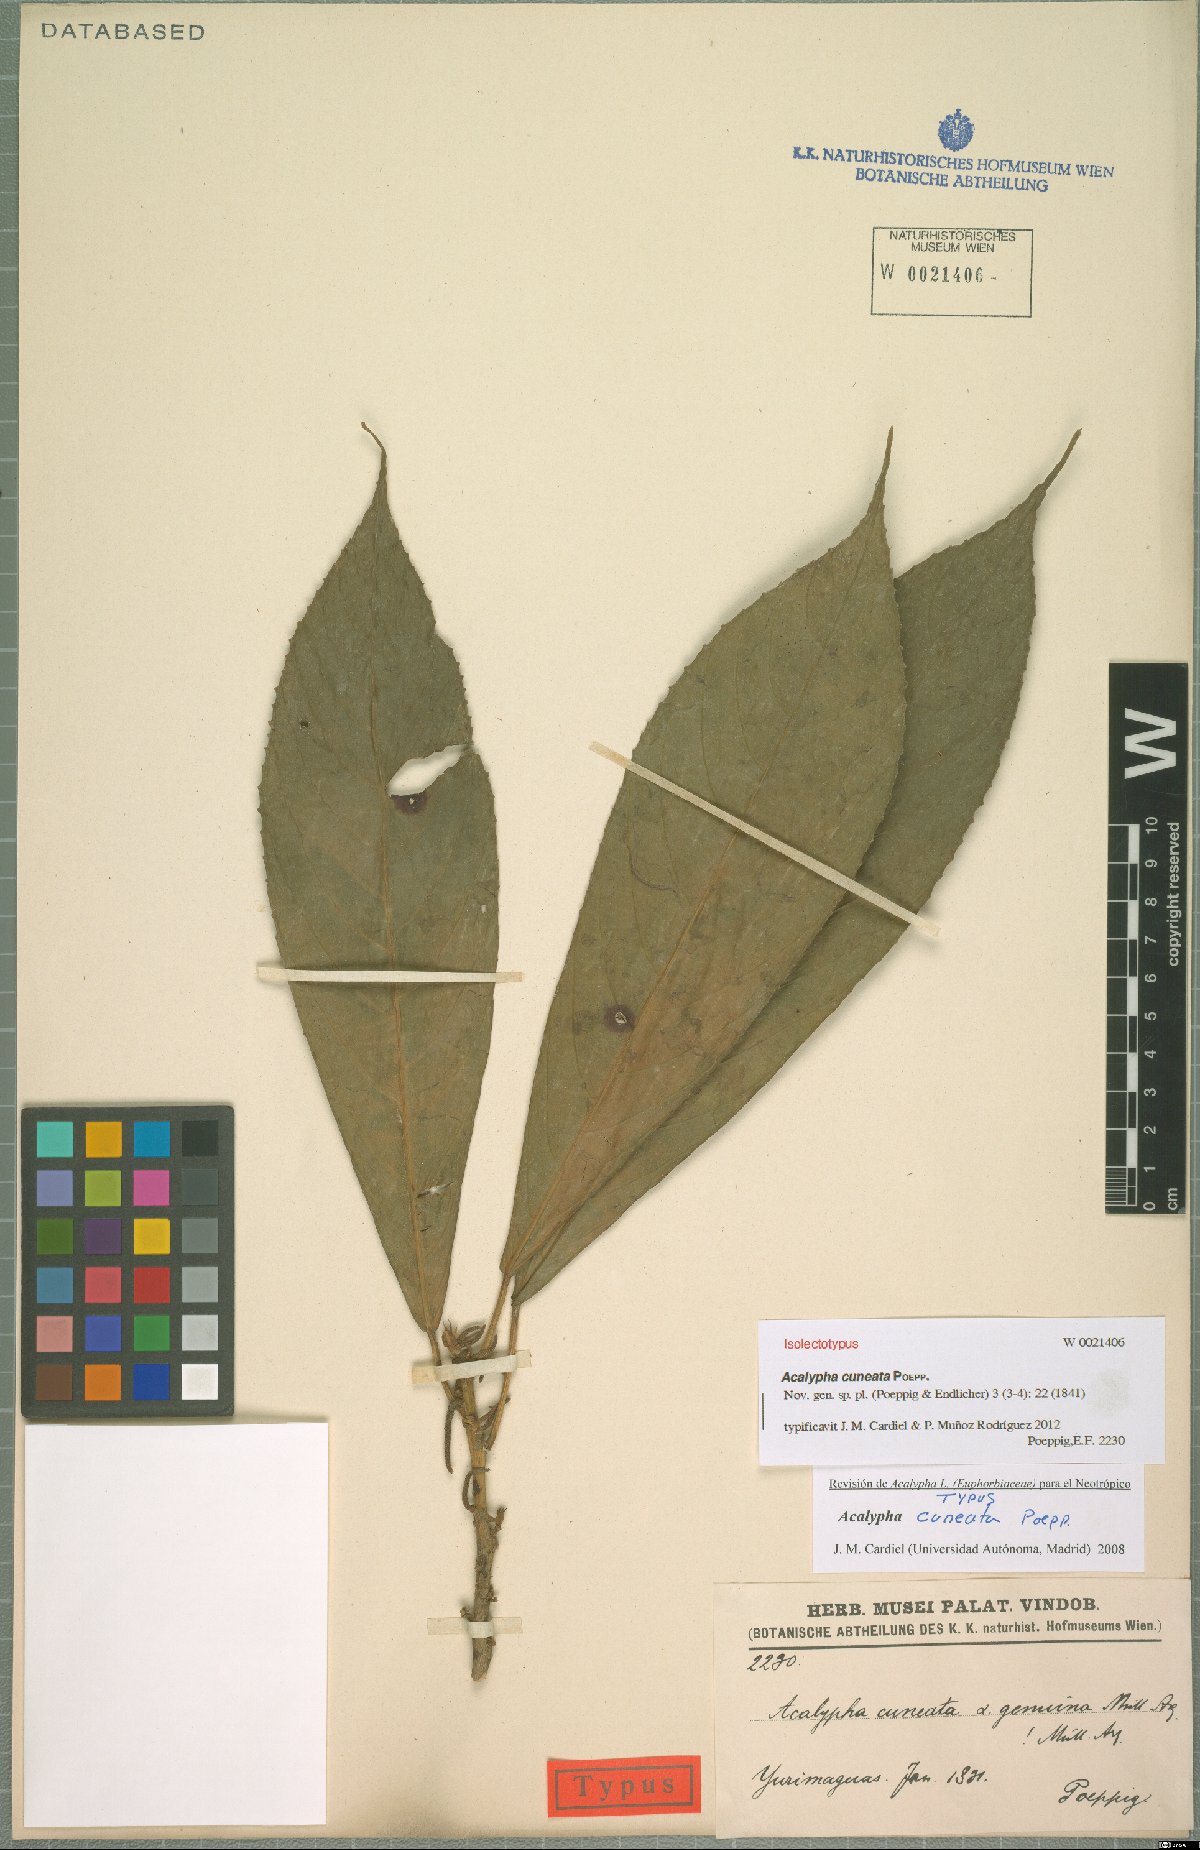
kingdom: Plantae
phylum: Tracheophyta
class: Magnoliopsida
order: Malpighiales
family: Euphorbiaceae
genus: Acalypha
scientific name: Acalypha cuneata
